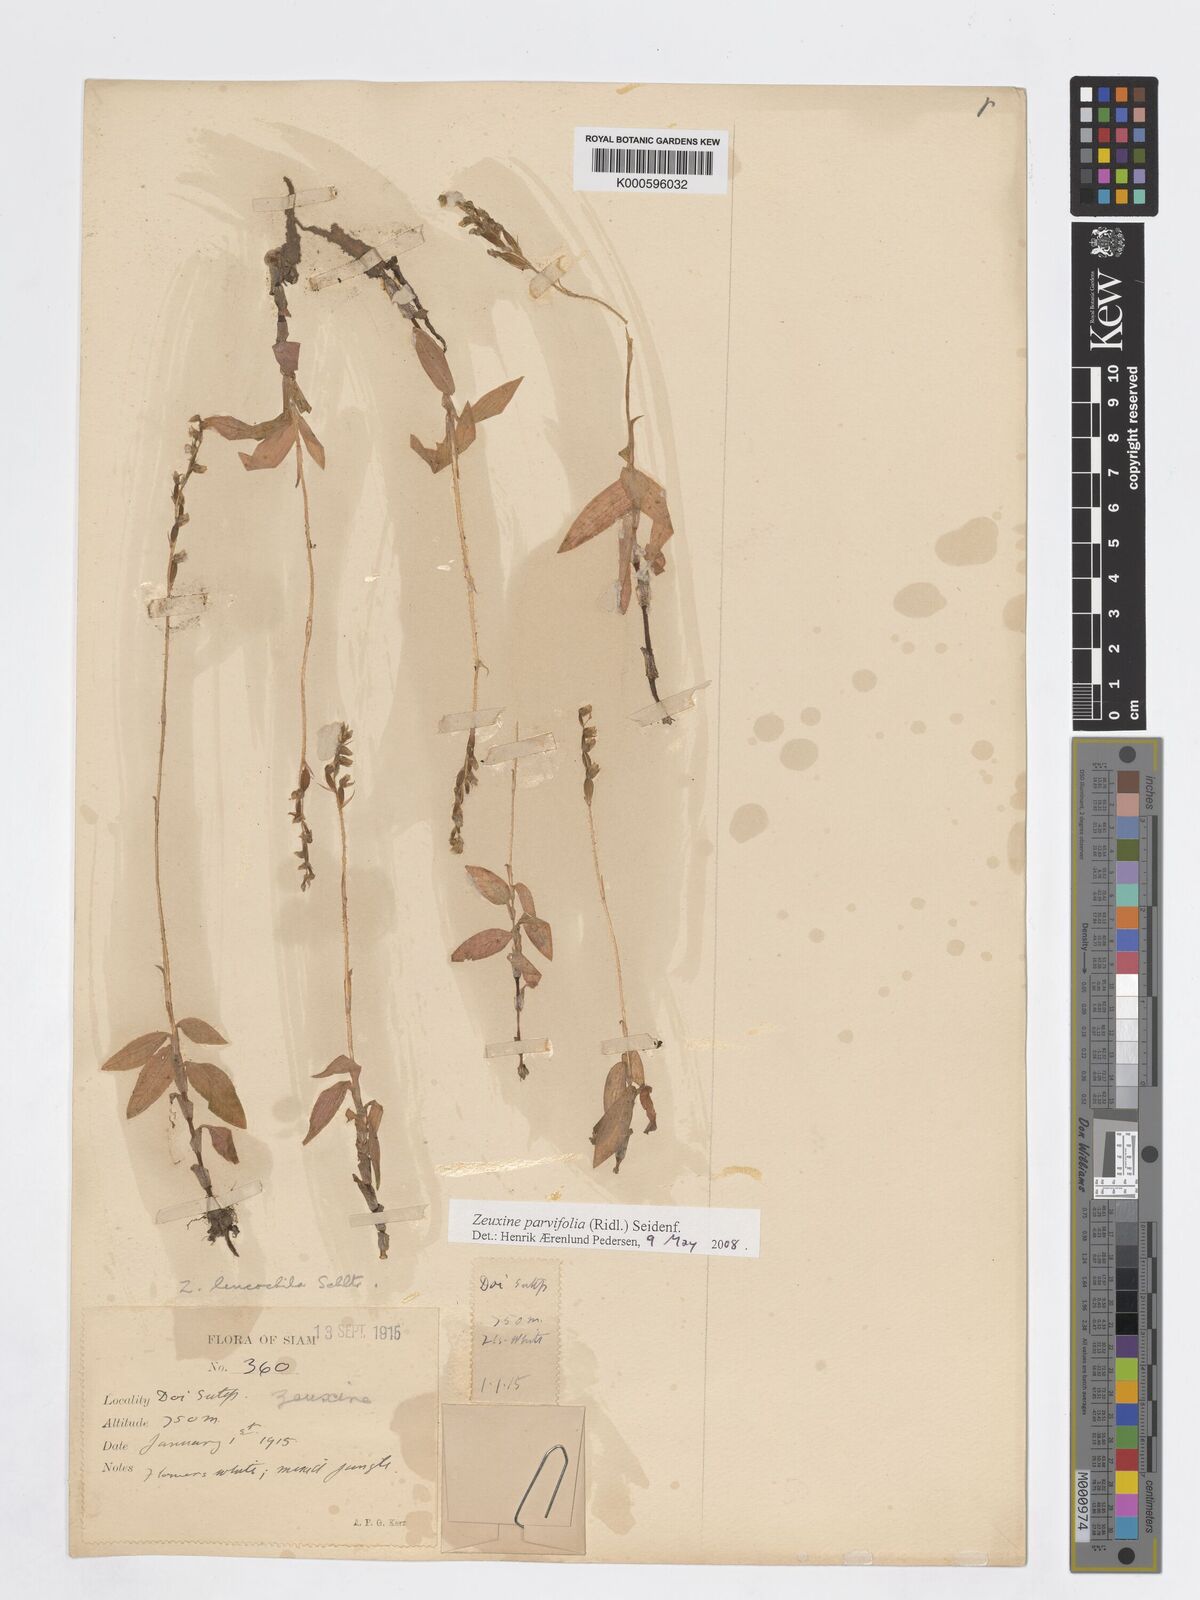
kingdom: Plantae
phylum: Tracheophyta
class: Liliopsida
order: Asparagales
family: Orchidaceae
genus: Zeuxine
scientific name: Zeuxine parvifolia
